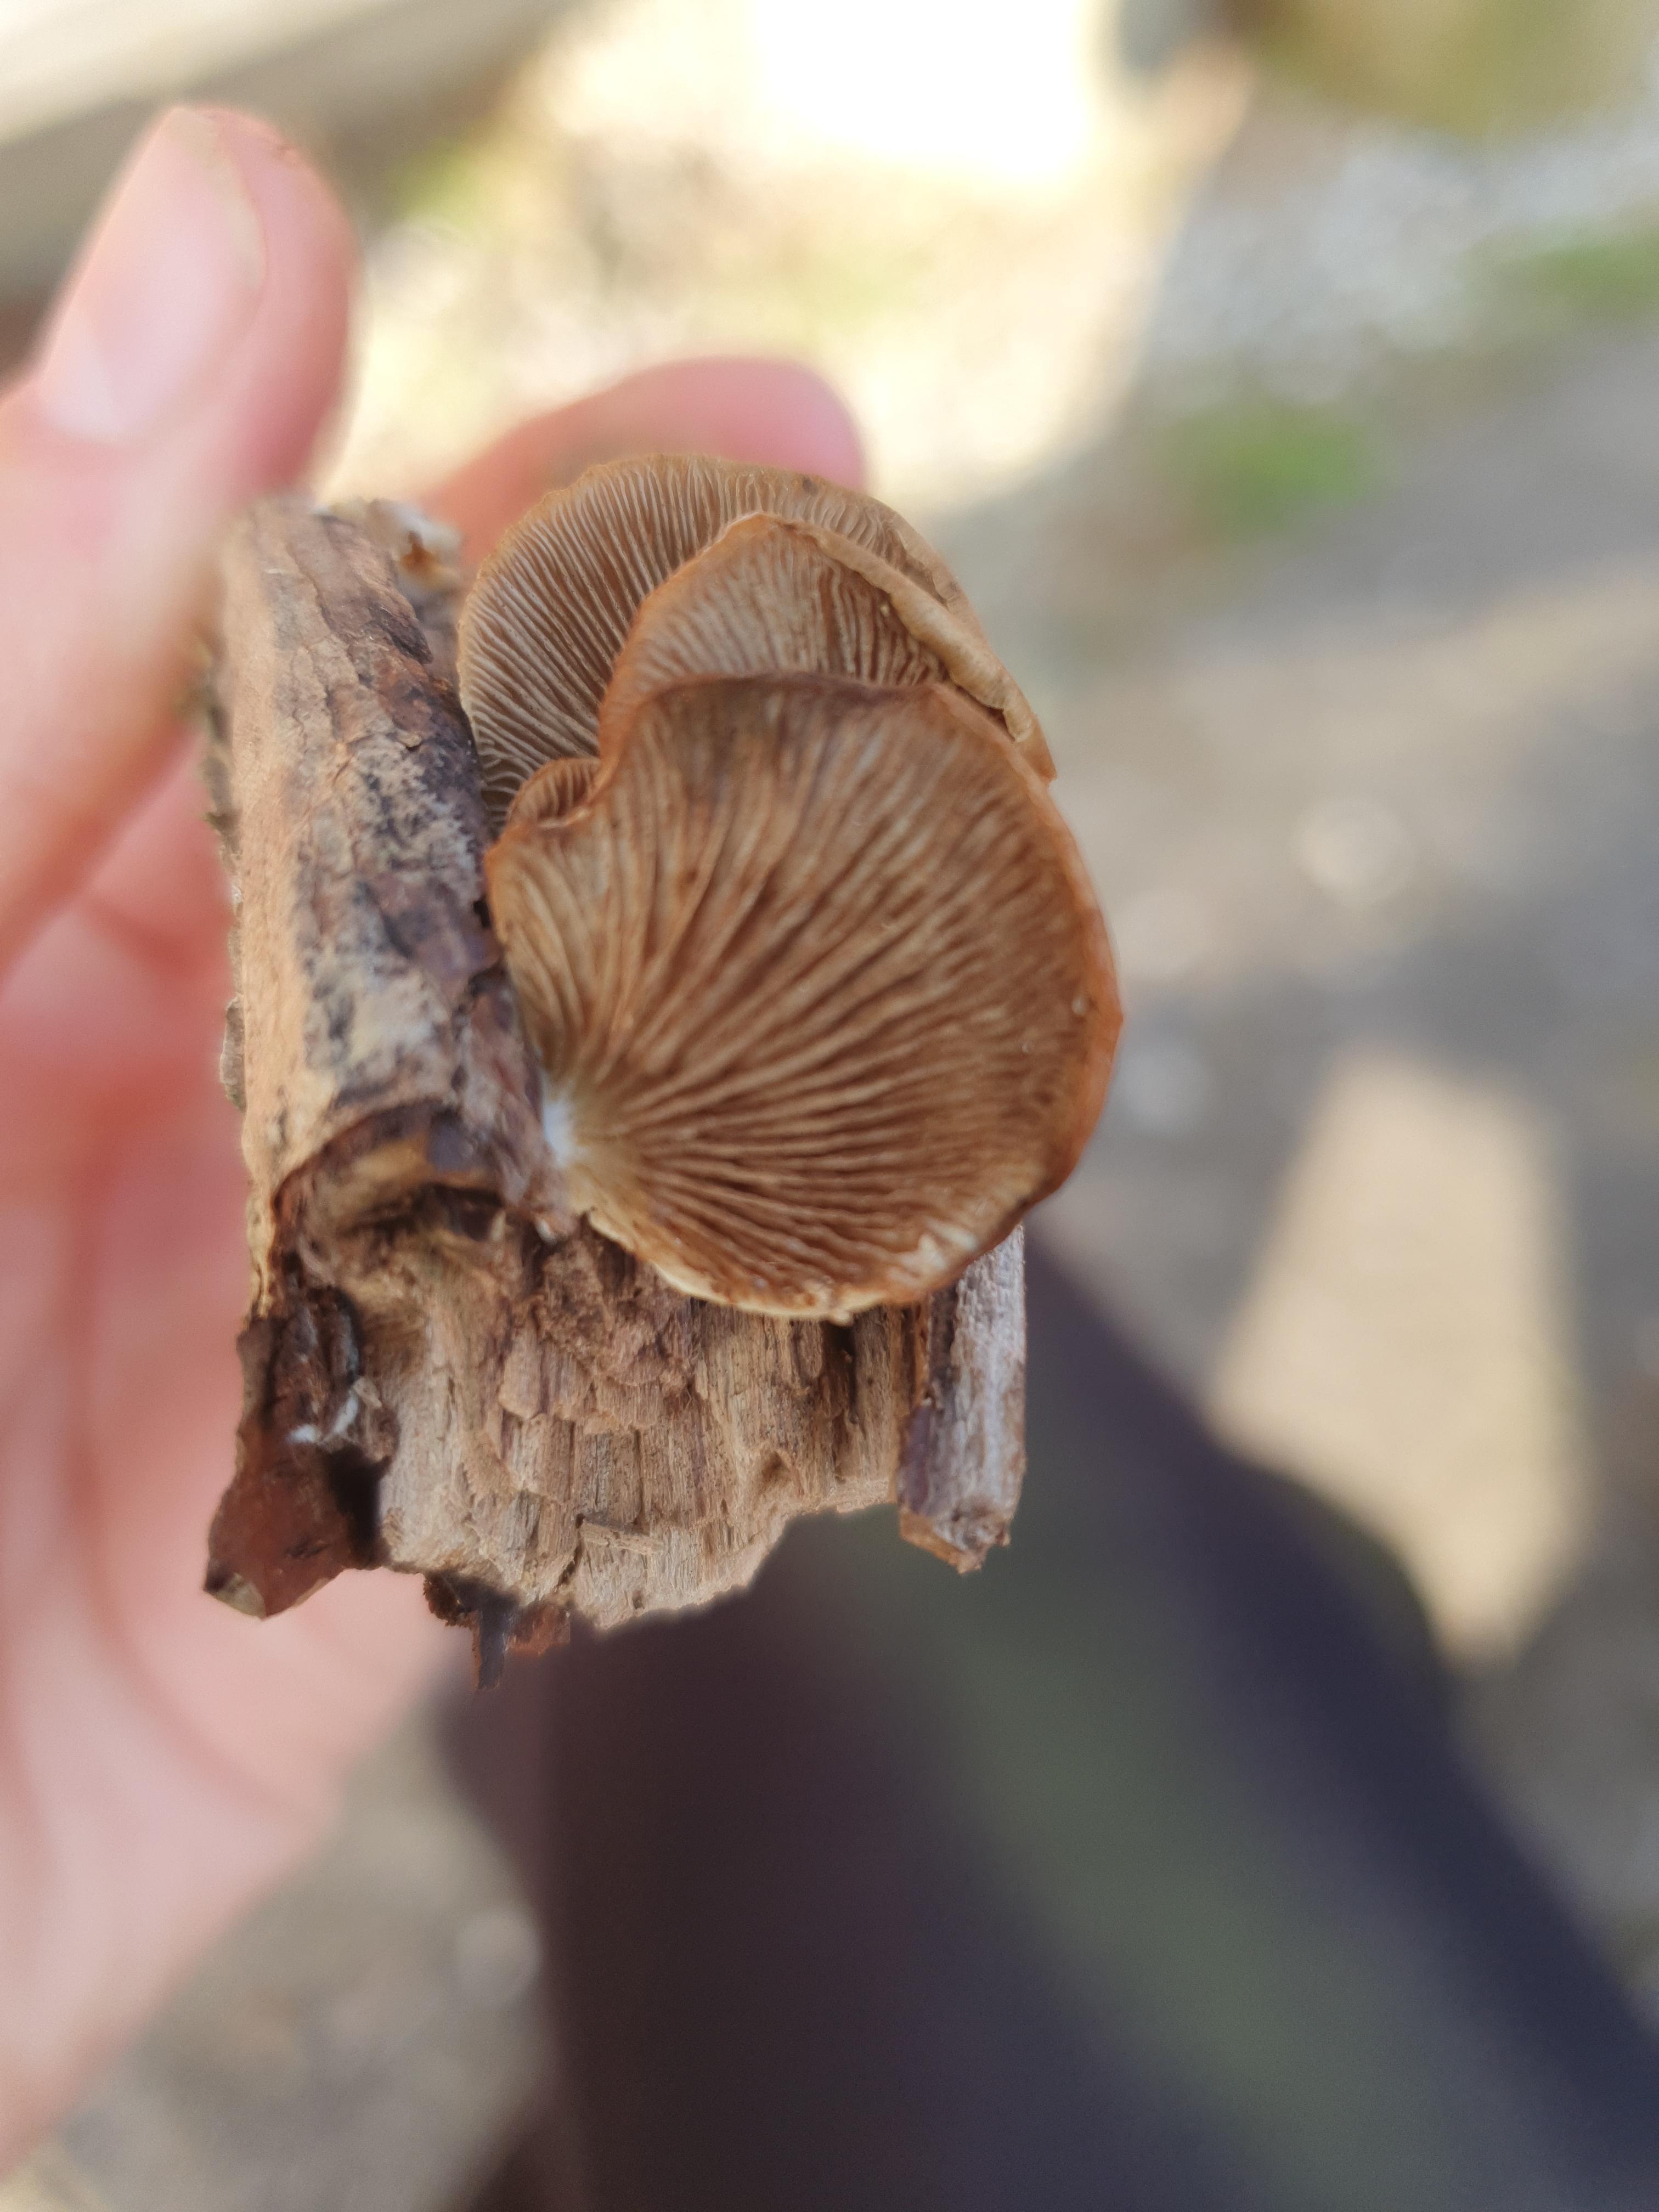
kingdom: Fungi
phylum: Basidiomycota
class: Agaricomycetes
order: Agaricales
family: Crepidotaceae
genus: Crepidotus
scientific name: Crepidotus mollis
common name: blød muslingesvamp
